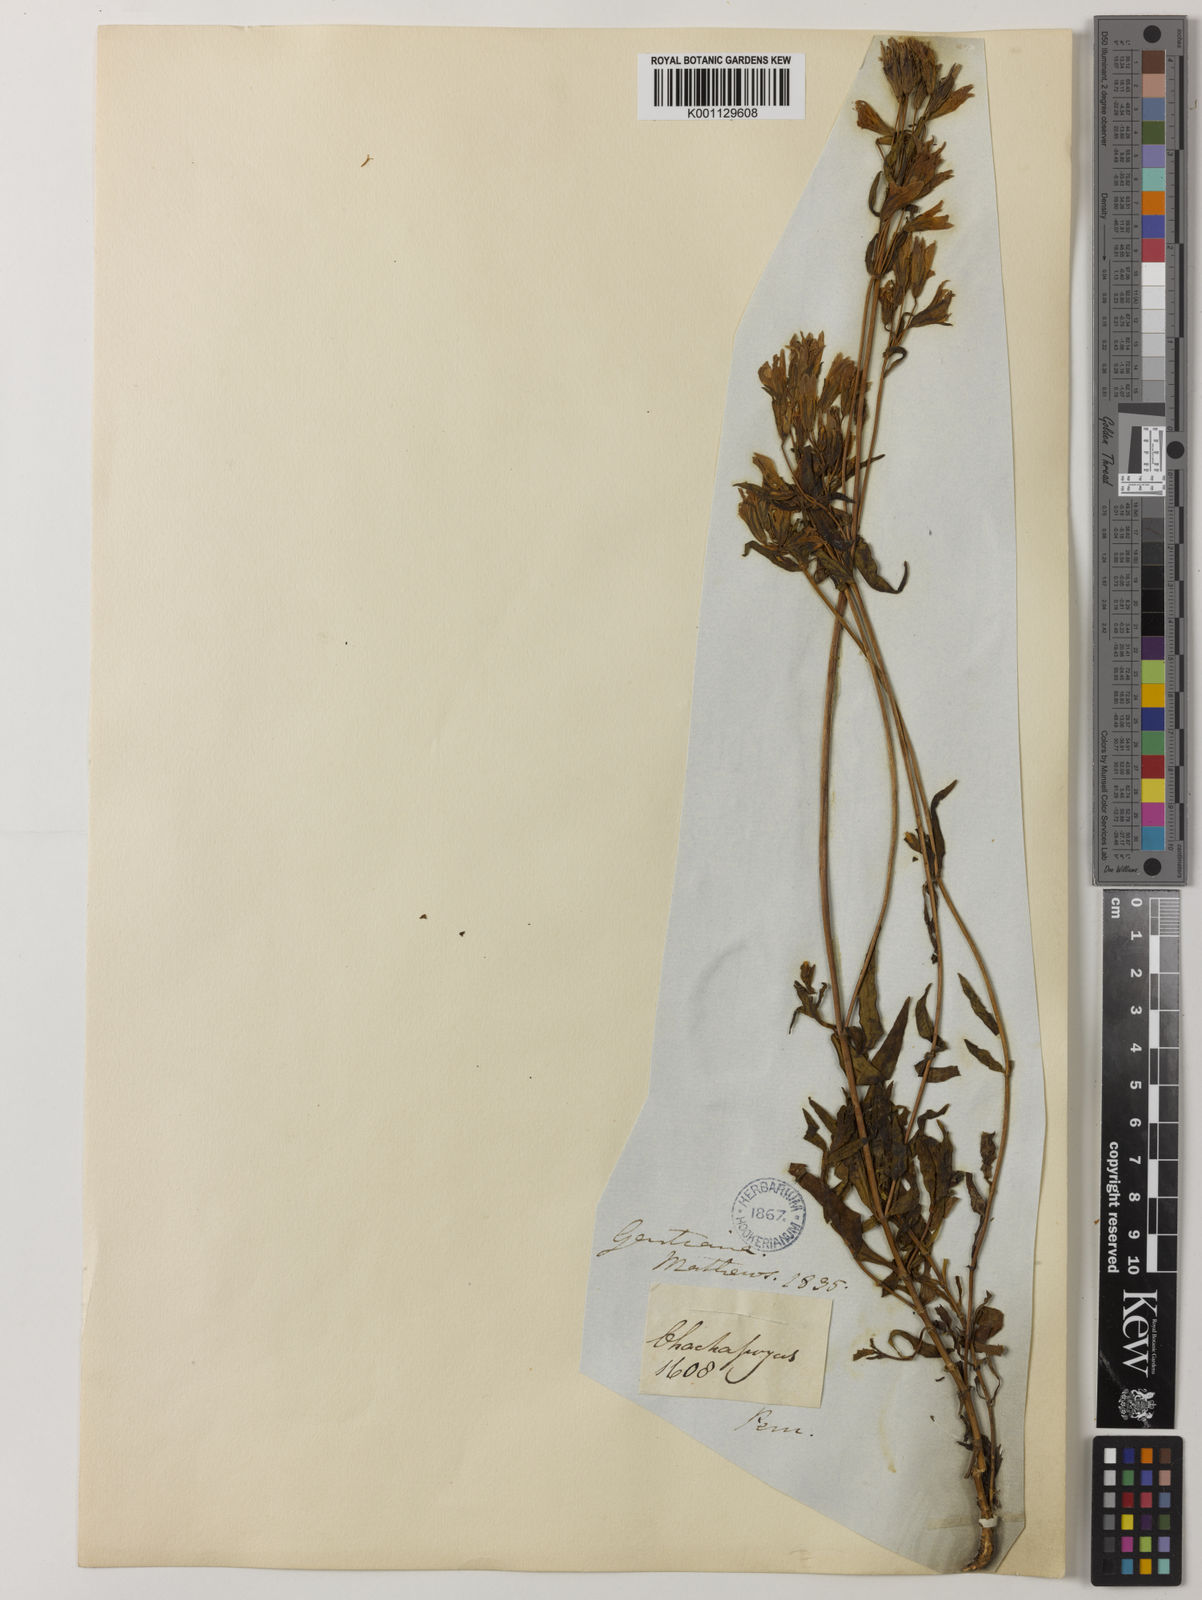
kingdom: Plantae
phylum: Tracheophyta
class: Magnoliopsida
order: Gentianales
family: Gentianaceae
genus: Gentianella
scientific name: Gentianella liniflora
